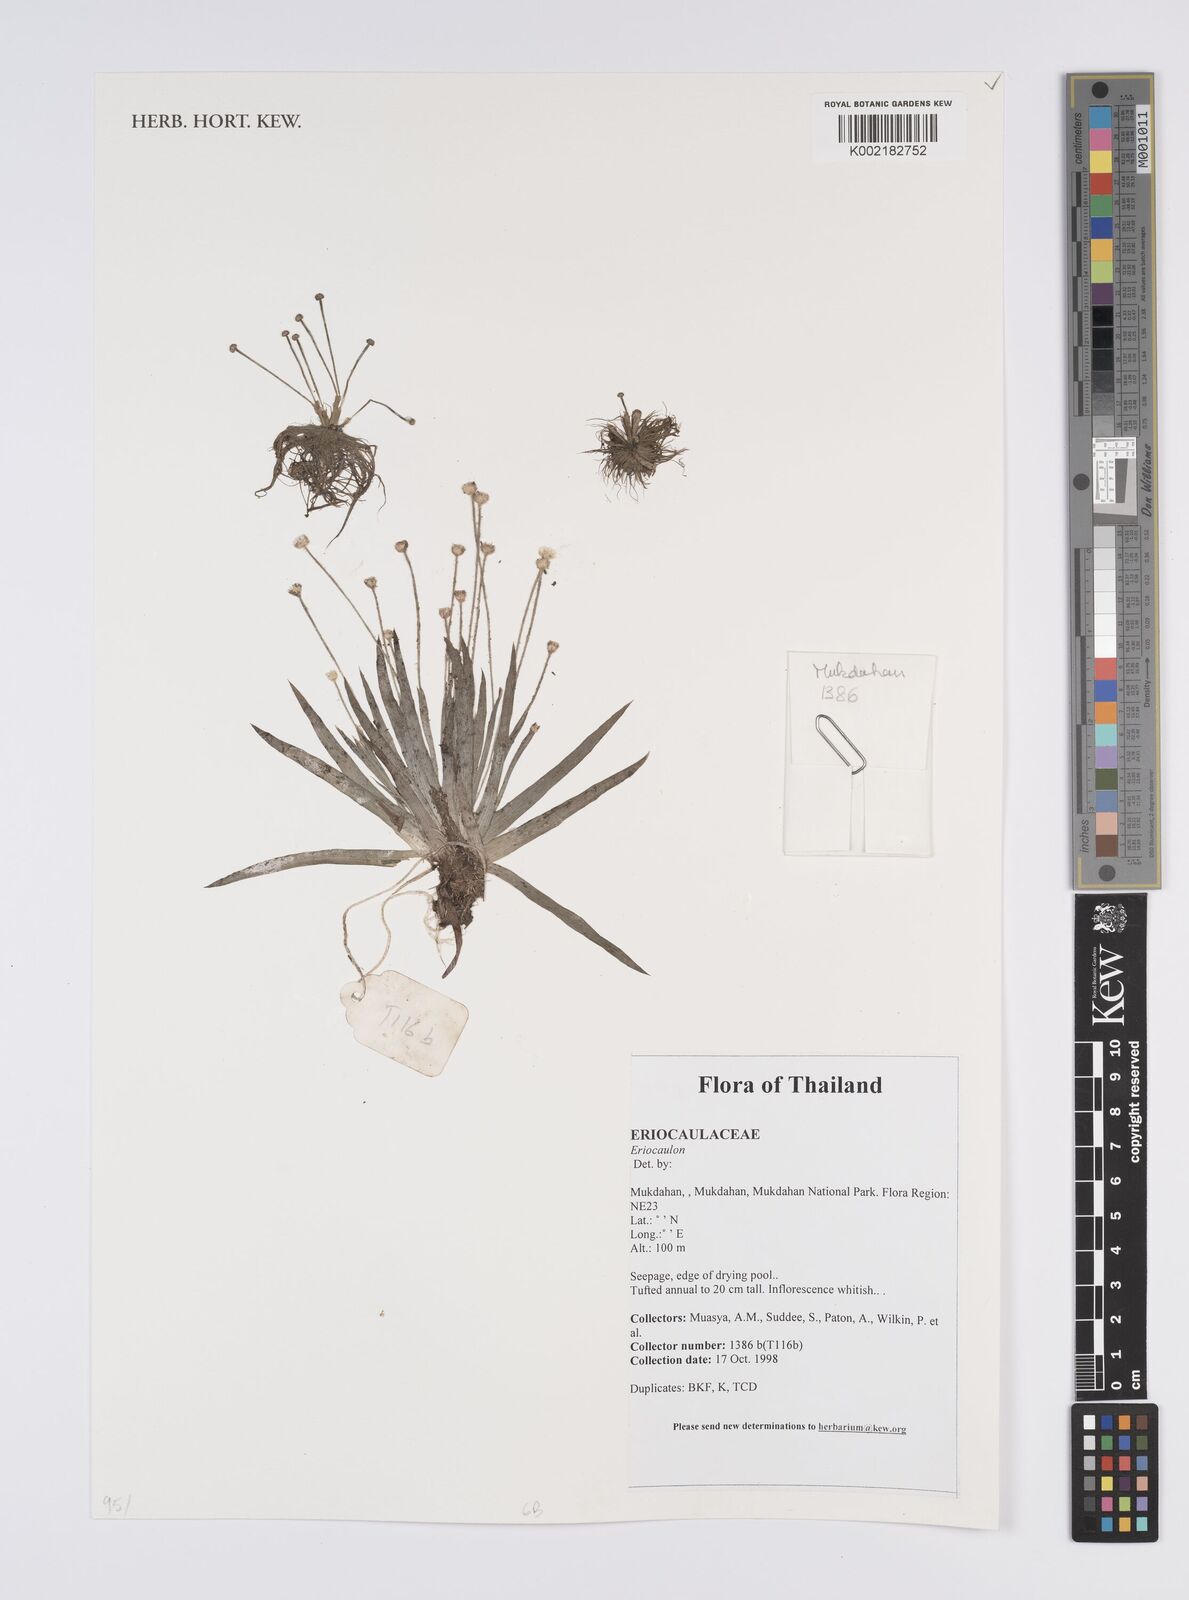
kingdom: Plantae
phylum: Tracheophyta
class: Liliopsida
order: Poales
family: Eriocaulaceae
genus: Eriocaulon
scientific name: Eriocaulon
